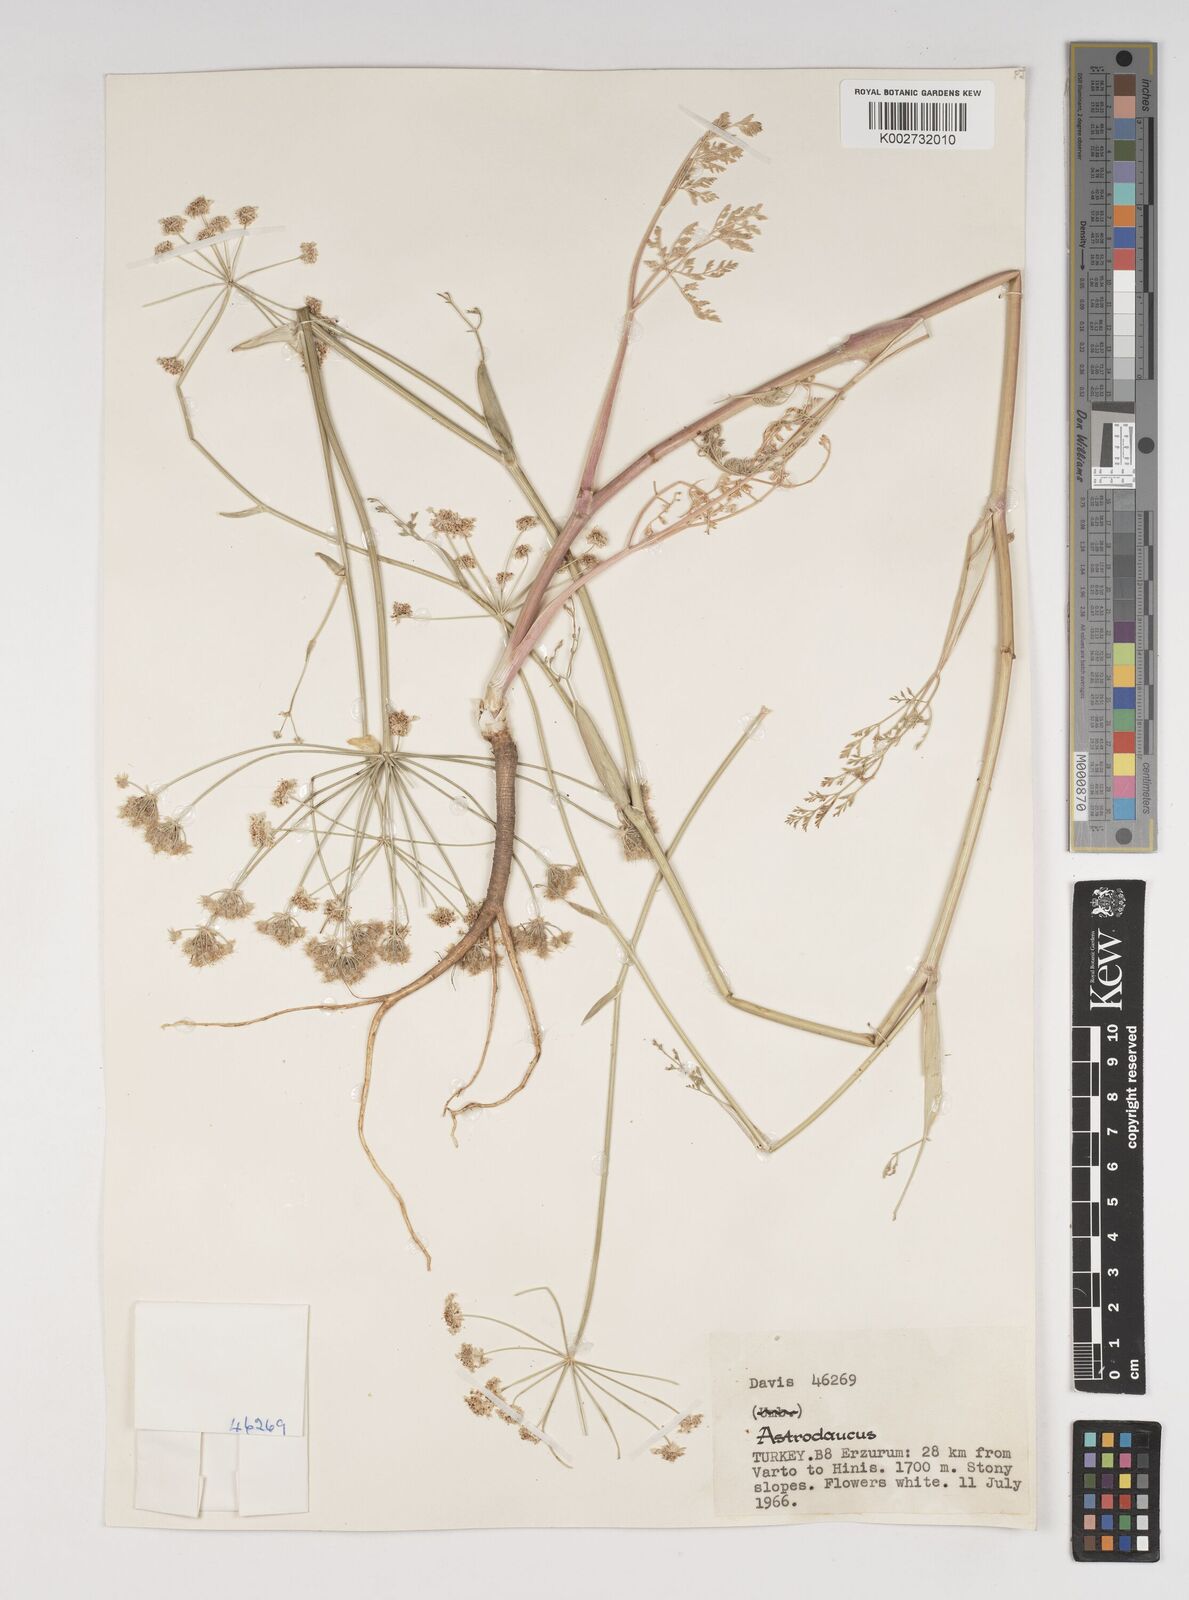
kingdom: Plantae
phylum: Tracheophyta
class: Magnoliopsida
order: Apiales
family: Apiaceae
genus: Astrodaucus
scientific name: Astrodaucus
